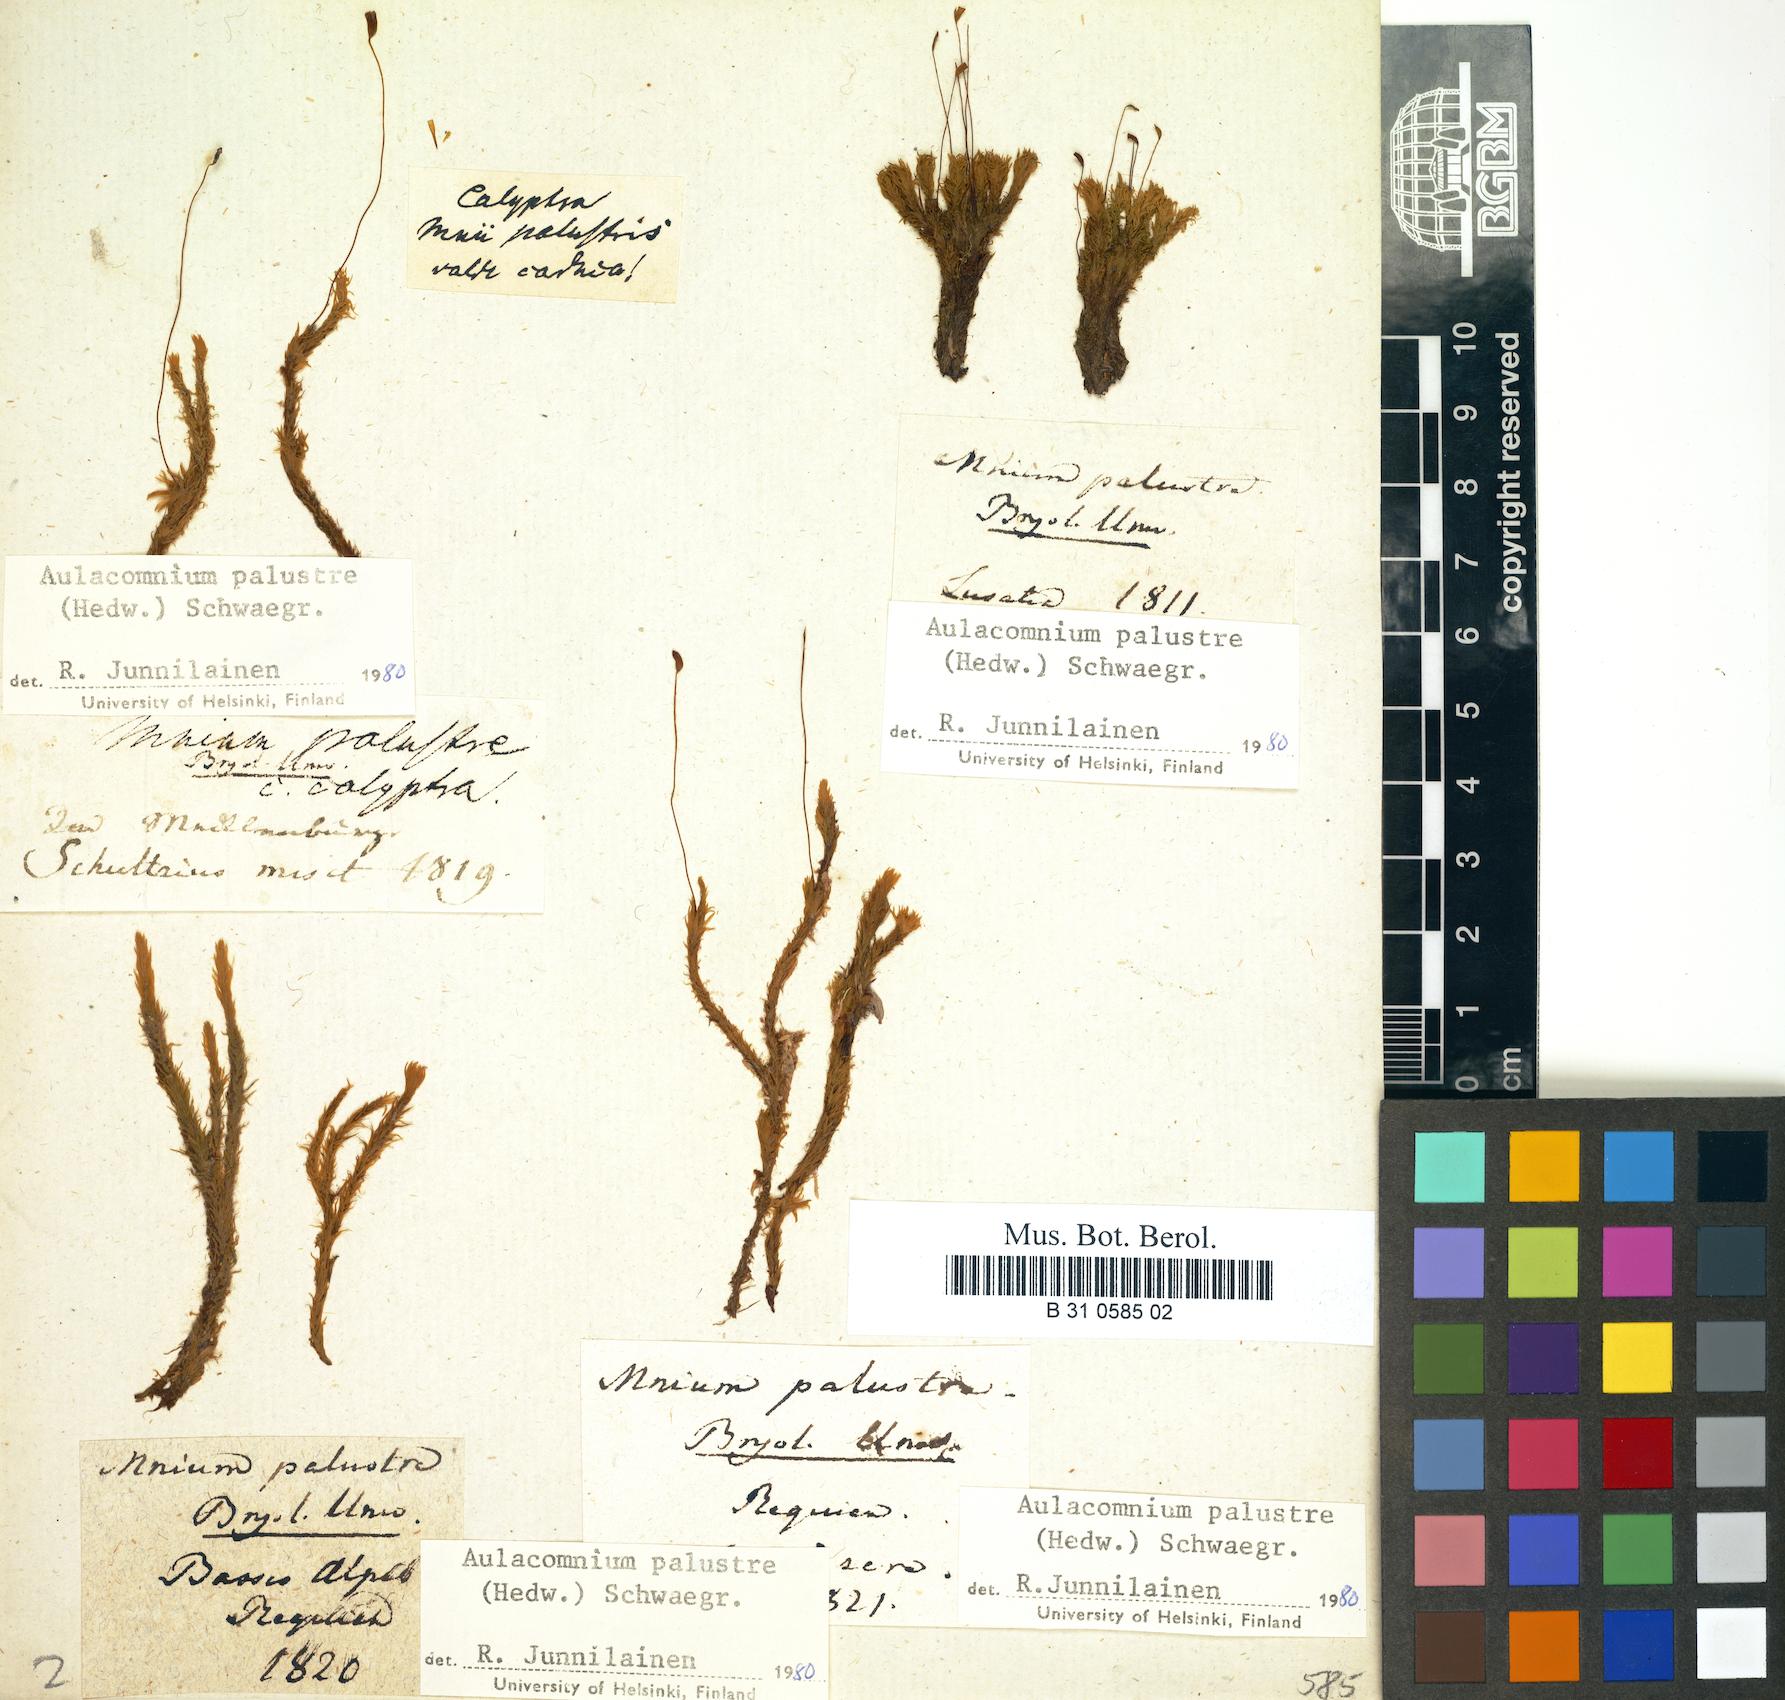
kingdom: Plantae
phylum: Bryophyta
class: Bryopsida
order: Aulacomniales
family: Aulacomniaceae
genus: Aulacomnium
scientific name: Aulacomnium palustre
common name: Bog groove-moss
